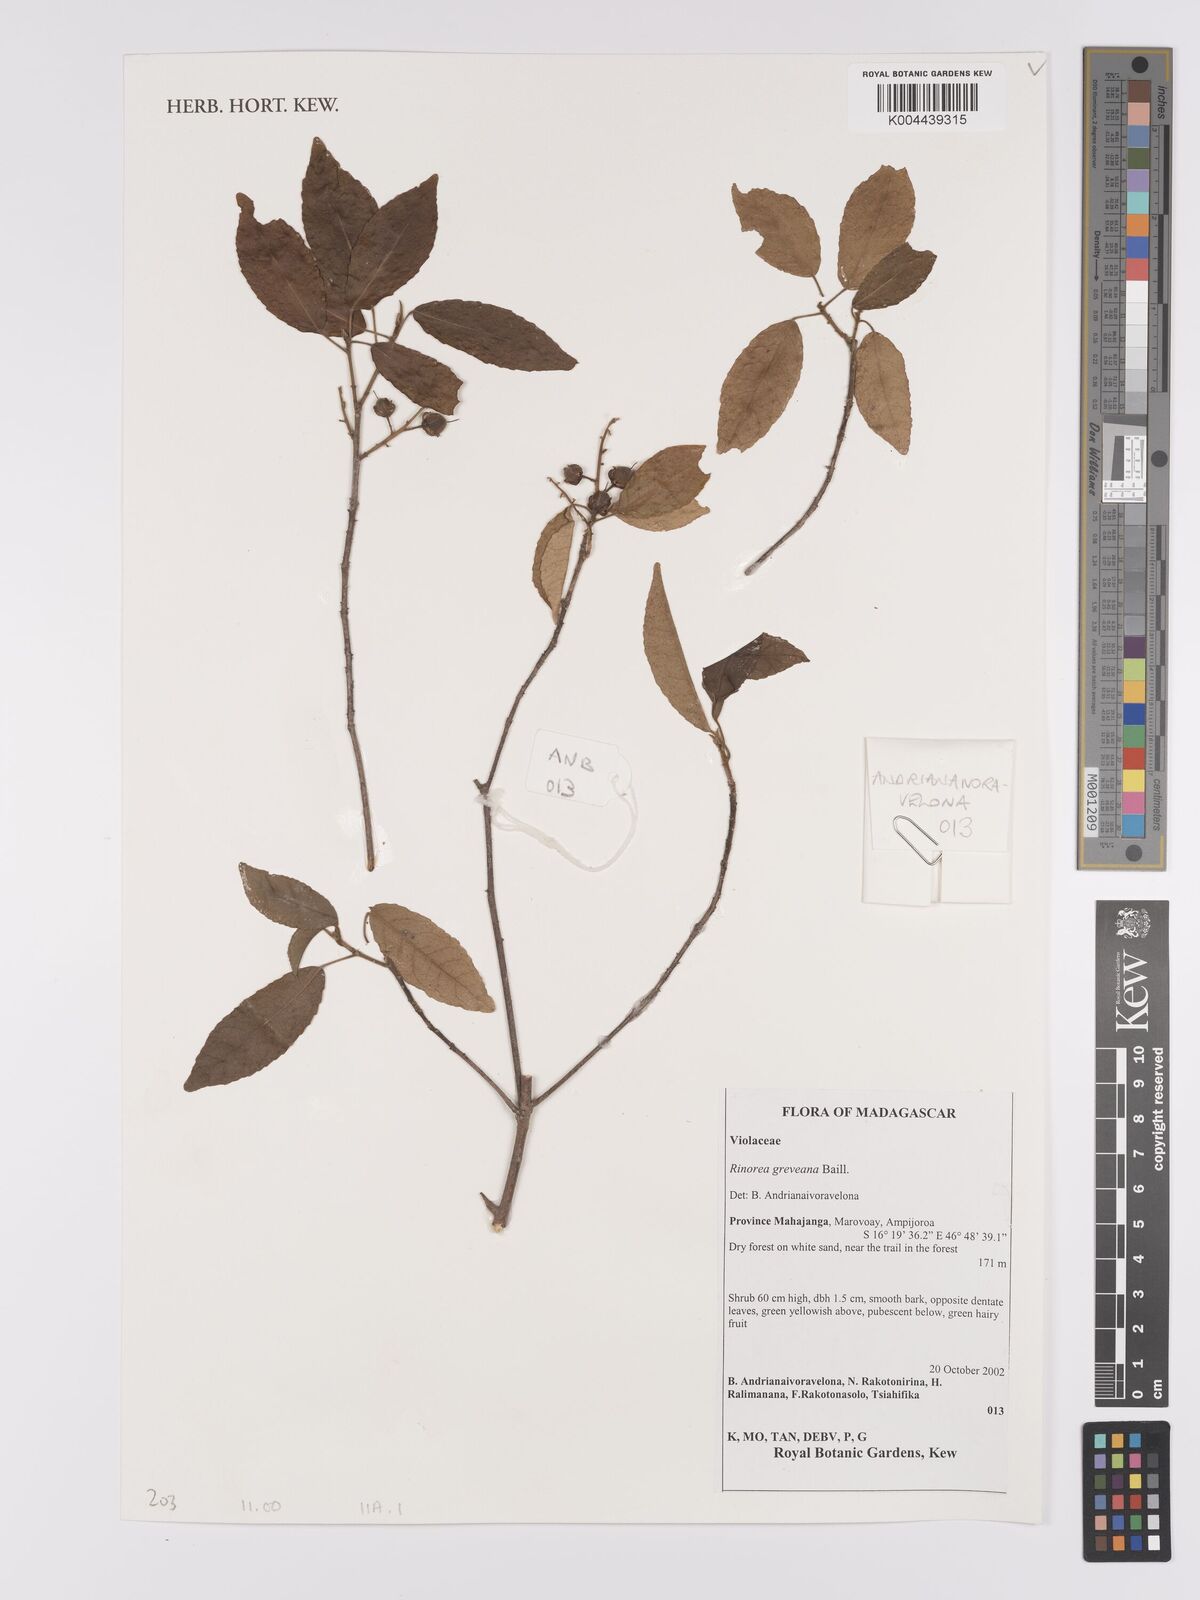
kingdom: Plantae
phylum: Tracheophyta
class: Magnoliopsida
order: Malpighiales
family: Violaceae
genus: Rinorea
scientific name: Rinorea greveana
